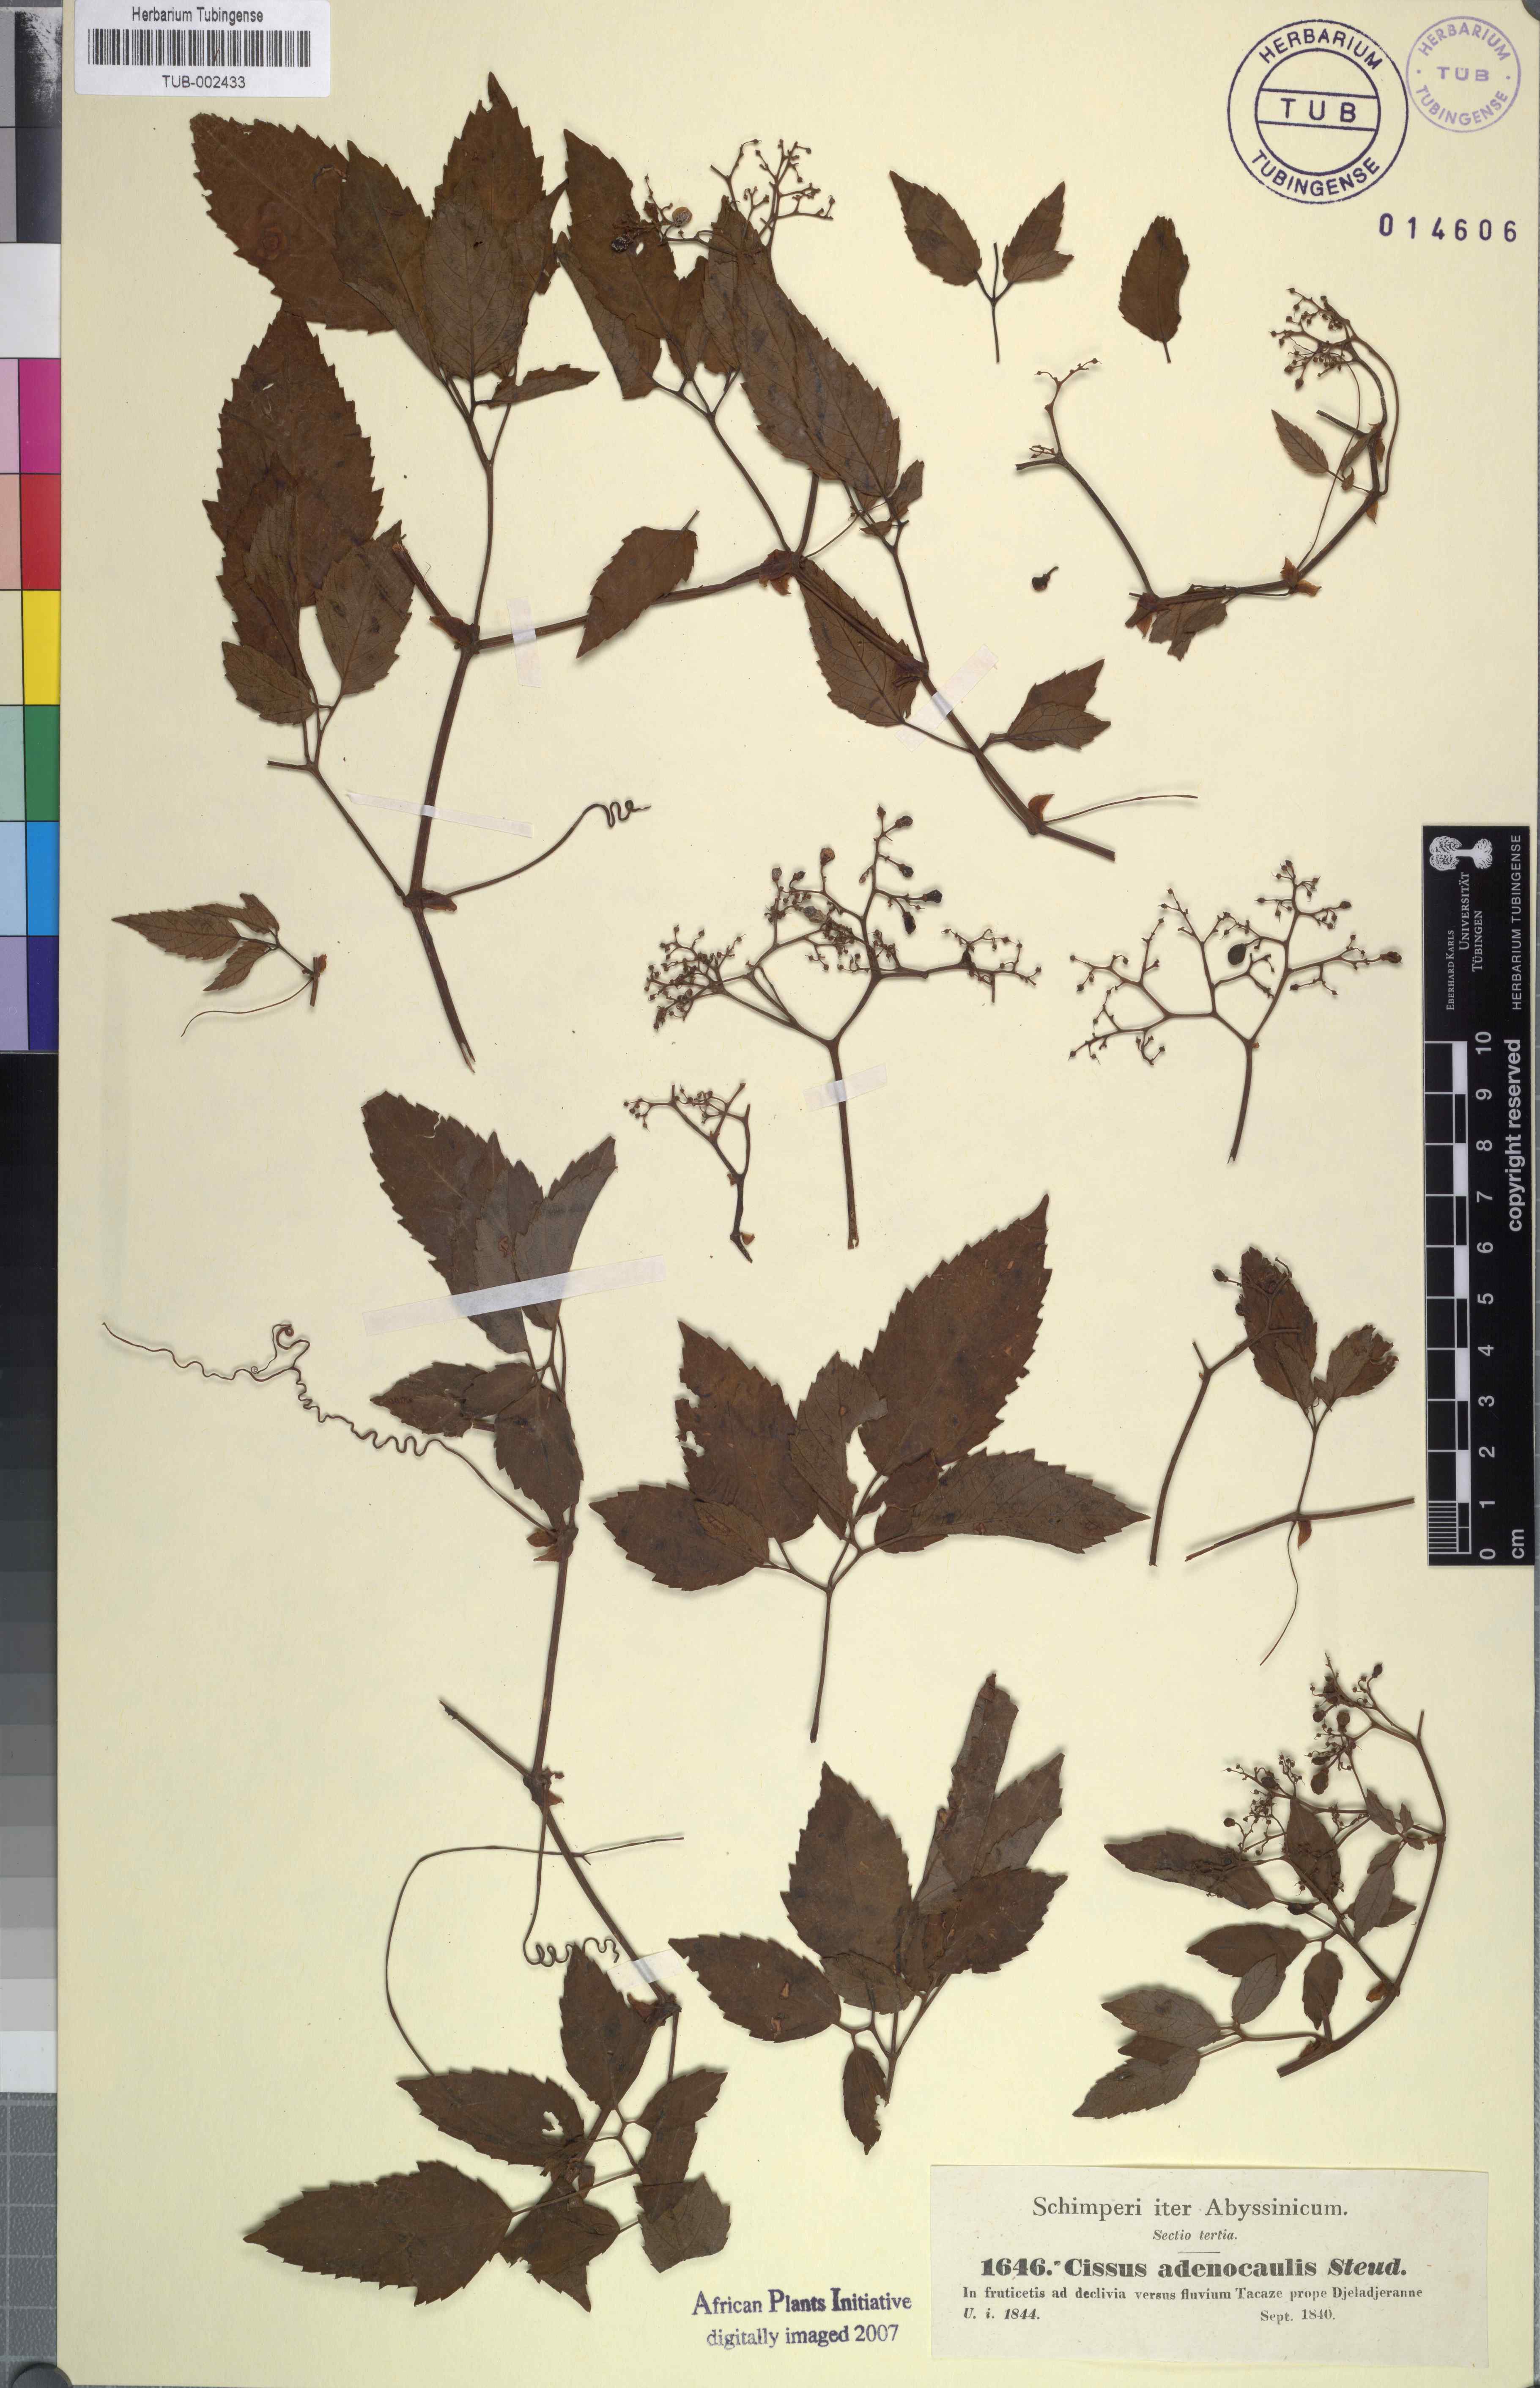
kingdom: Plantae
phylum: Tracheophyta
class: Magnoliopsida
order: Vitales
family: Vitaceae
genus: Cyphostemma
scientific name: Cyphostemma adenocaule
